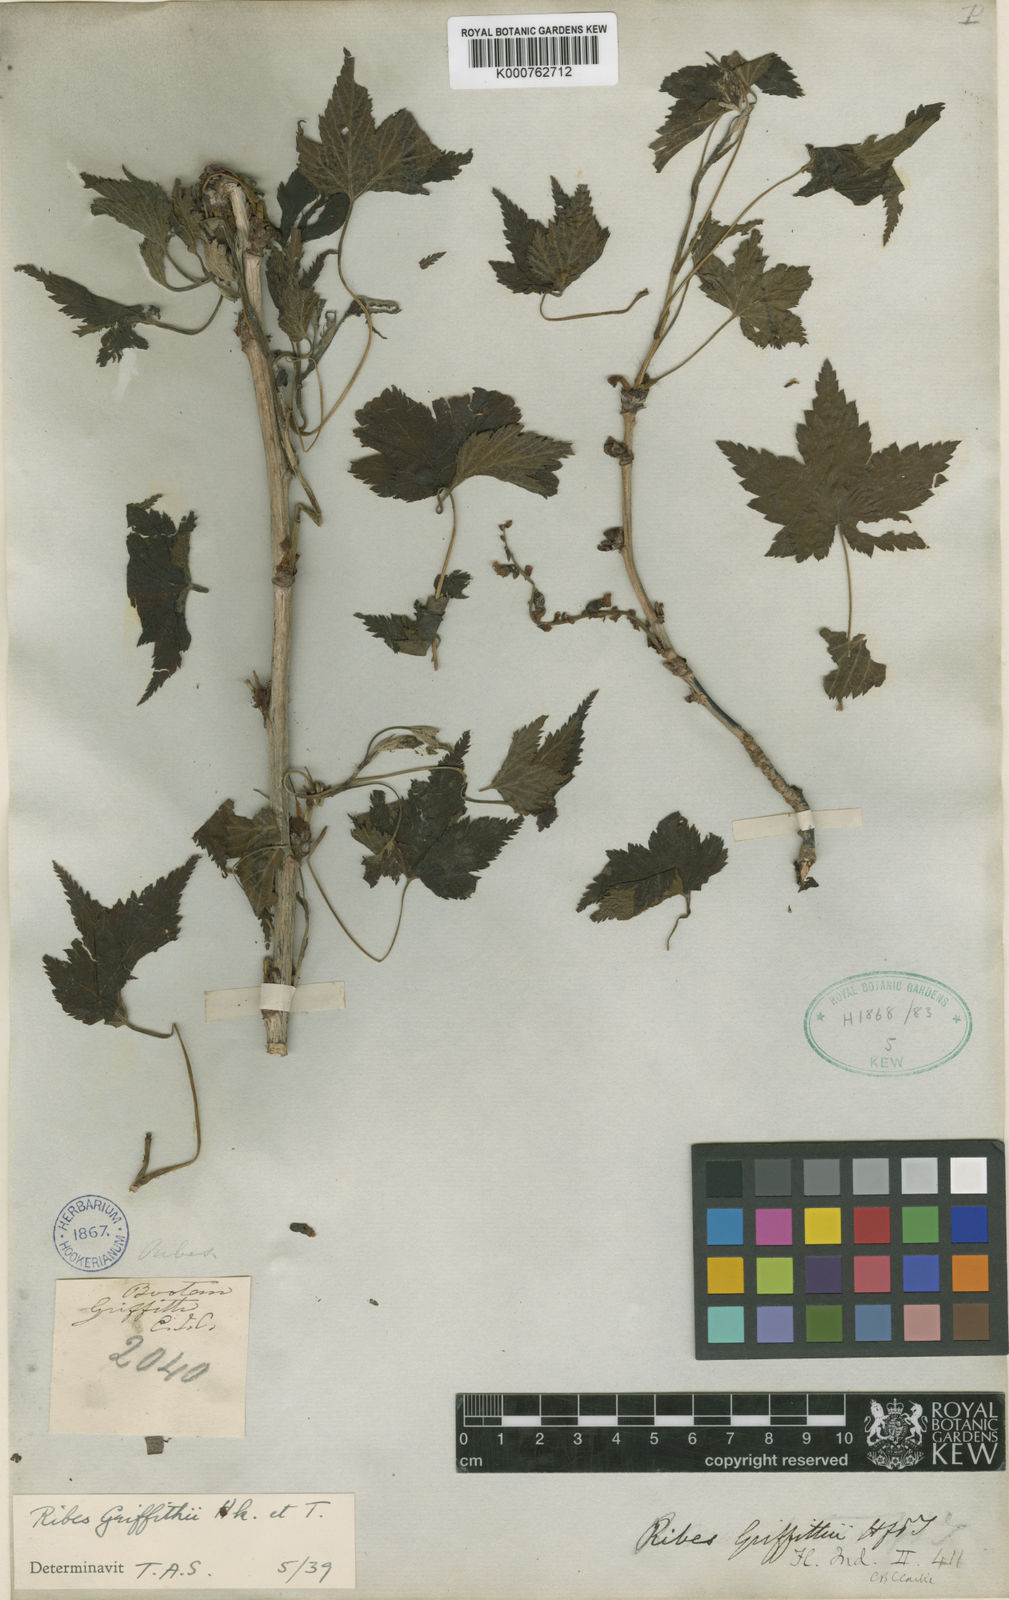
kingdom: Plantae
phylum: Tracheophyta
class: Magnoliopsida
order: Saxifragales
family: Grossulariaceae
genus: Ribes
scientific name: Ribes griffithii
